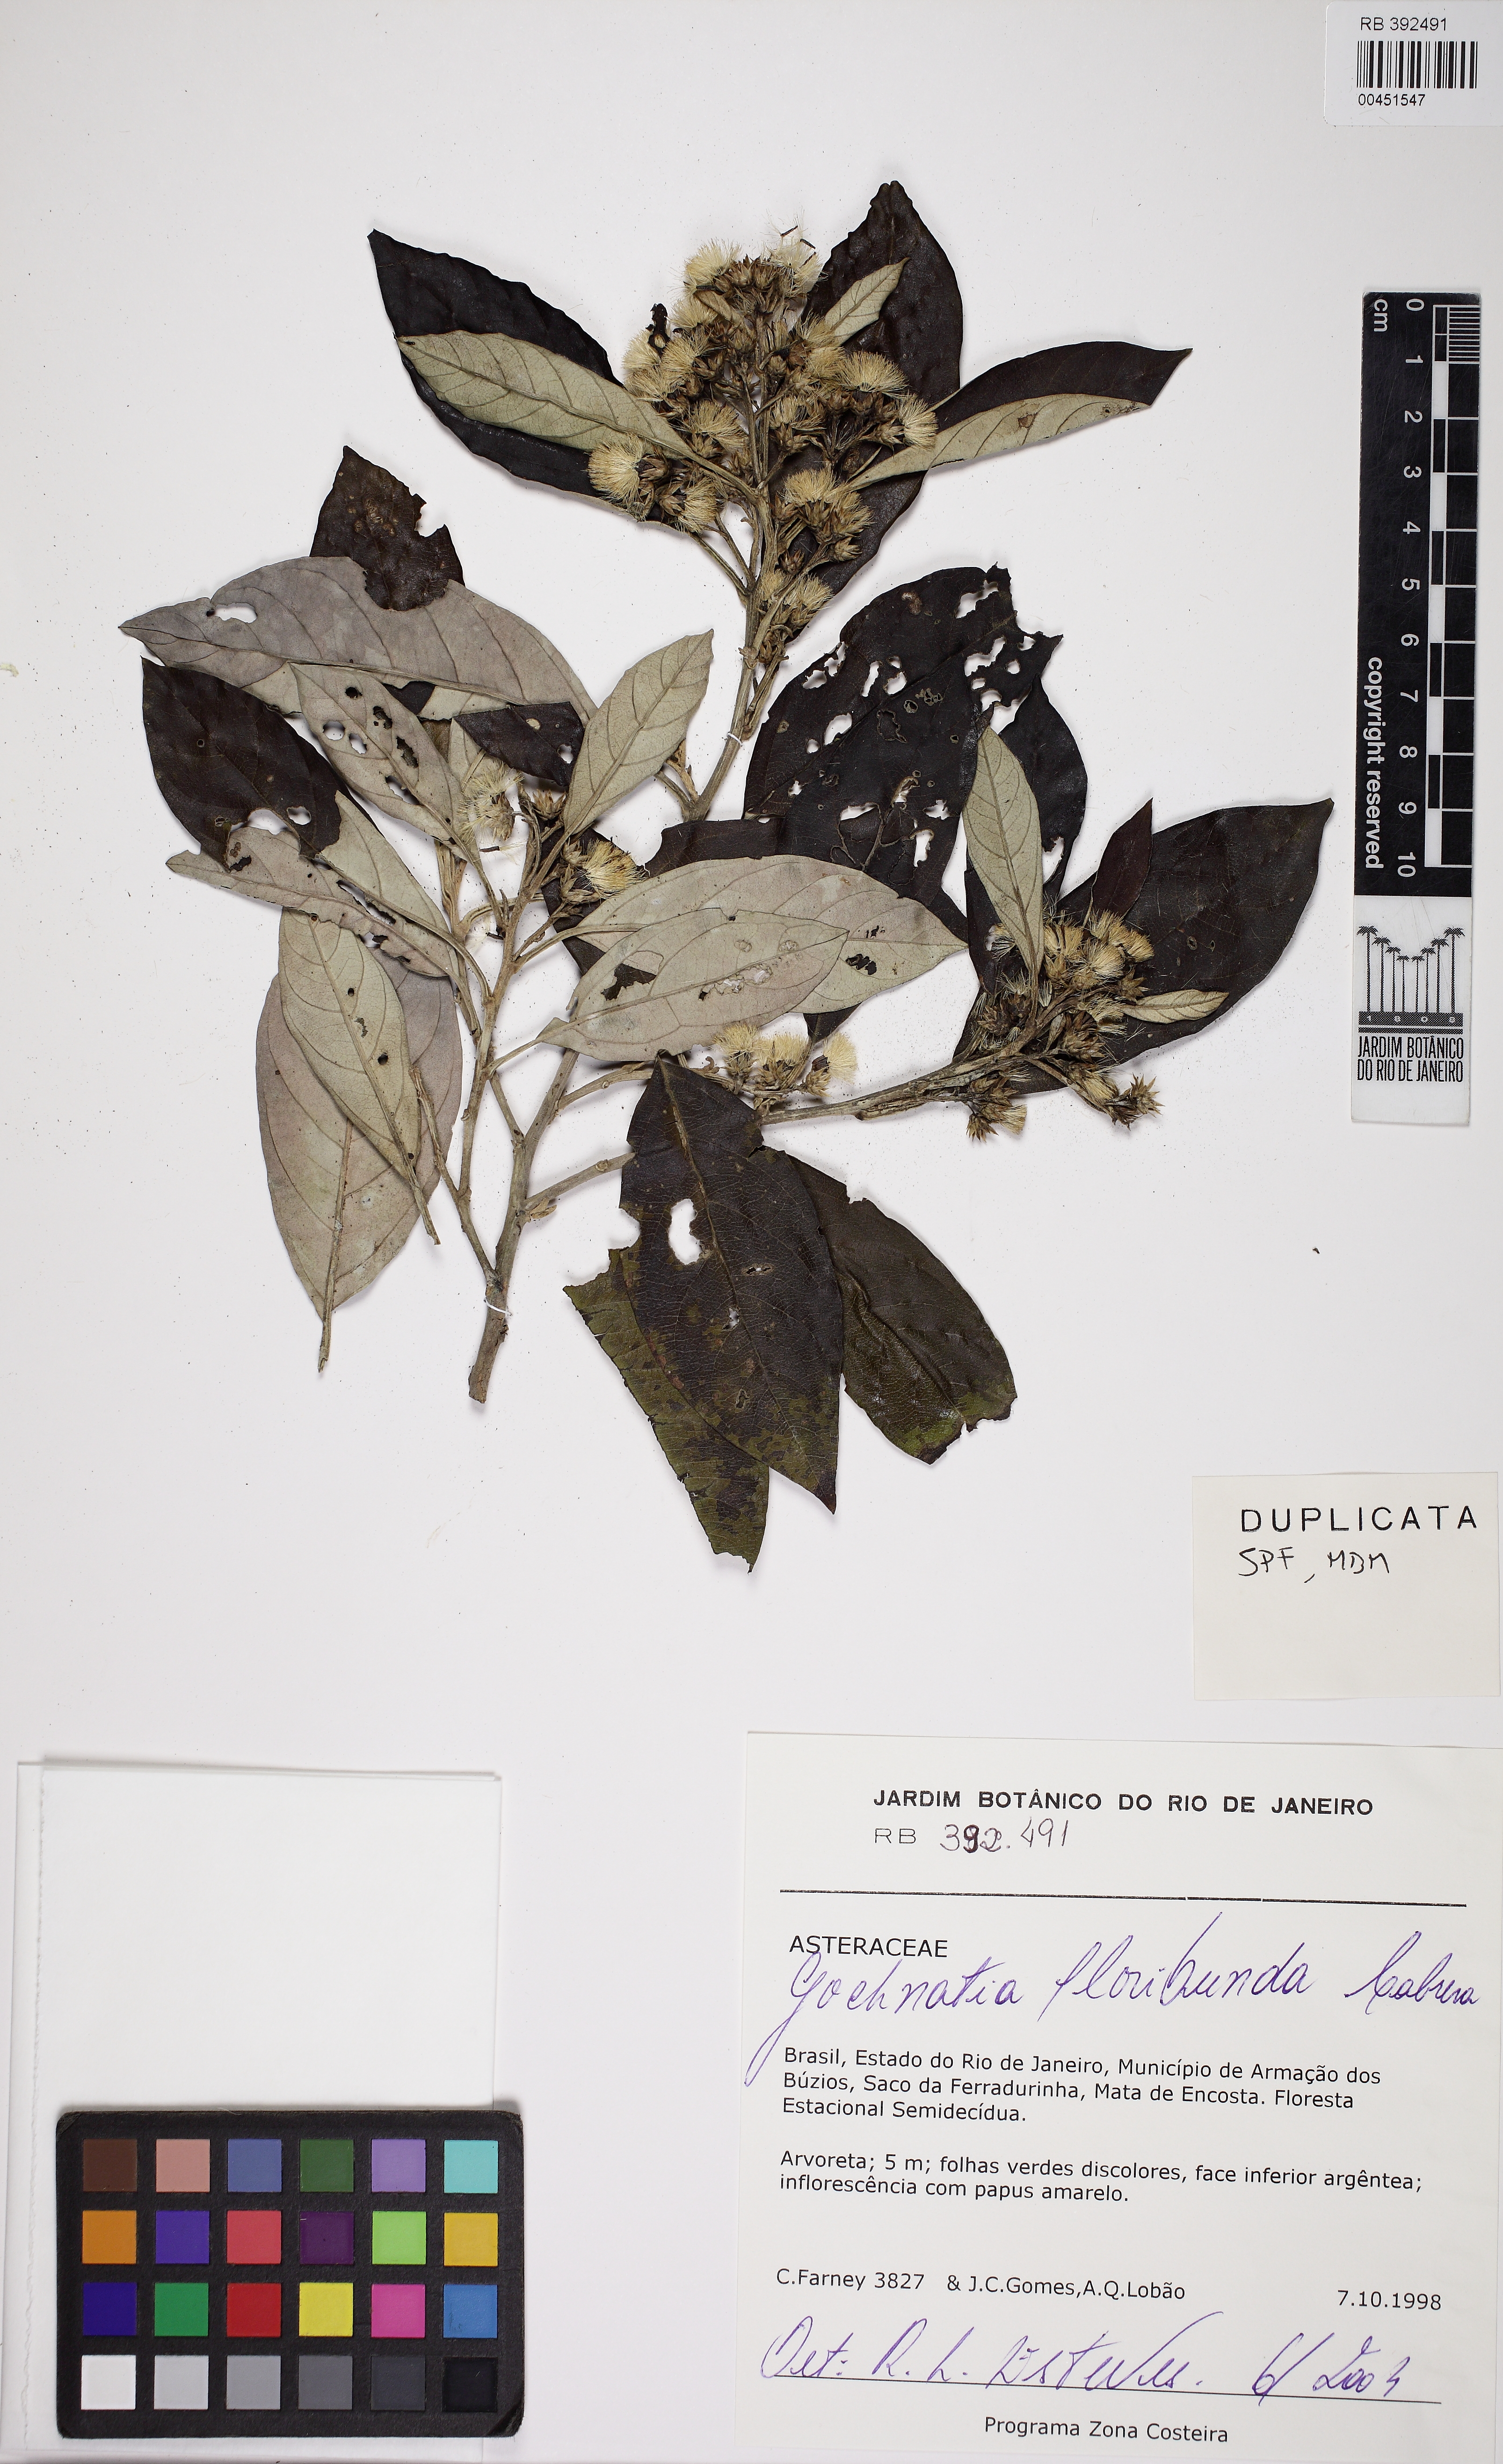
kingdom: Plantae
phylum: Tracheophyta
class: Magnoliopsida
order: Asterales
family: Asteraceae
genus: Moquiniastrum
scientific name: Moquiniastrum oligocephalum
